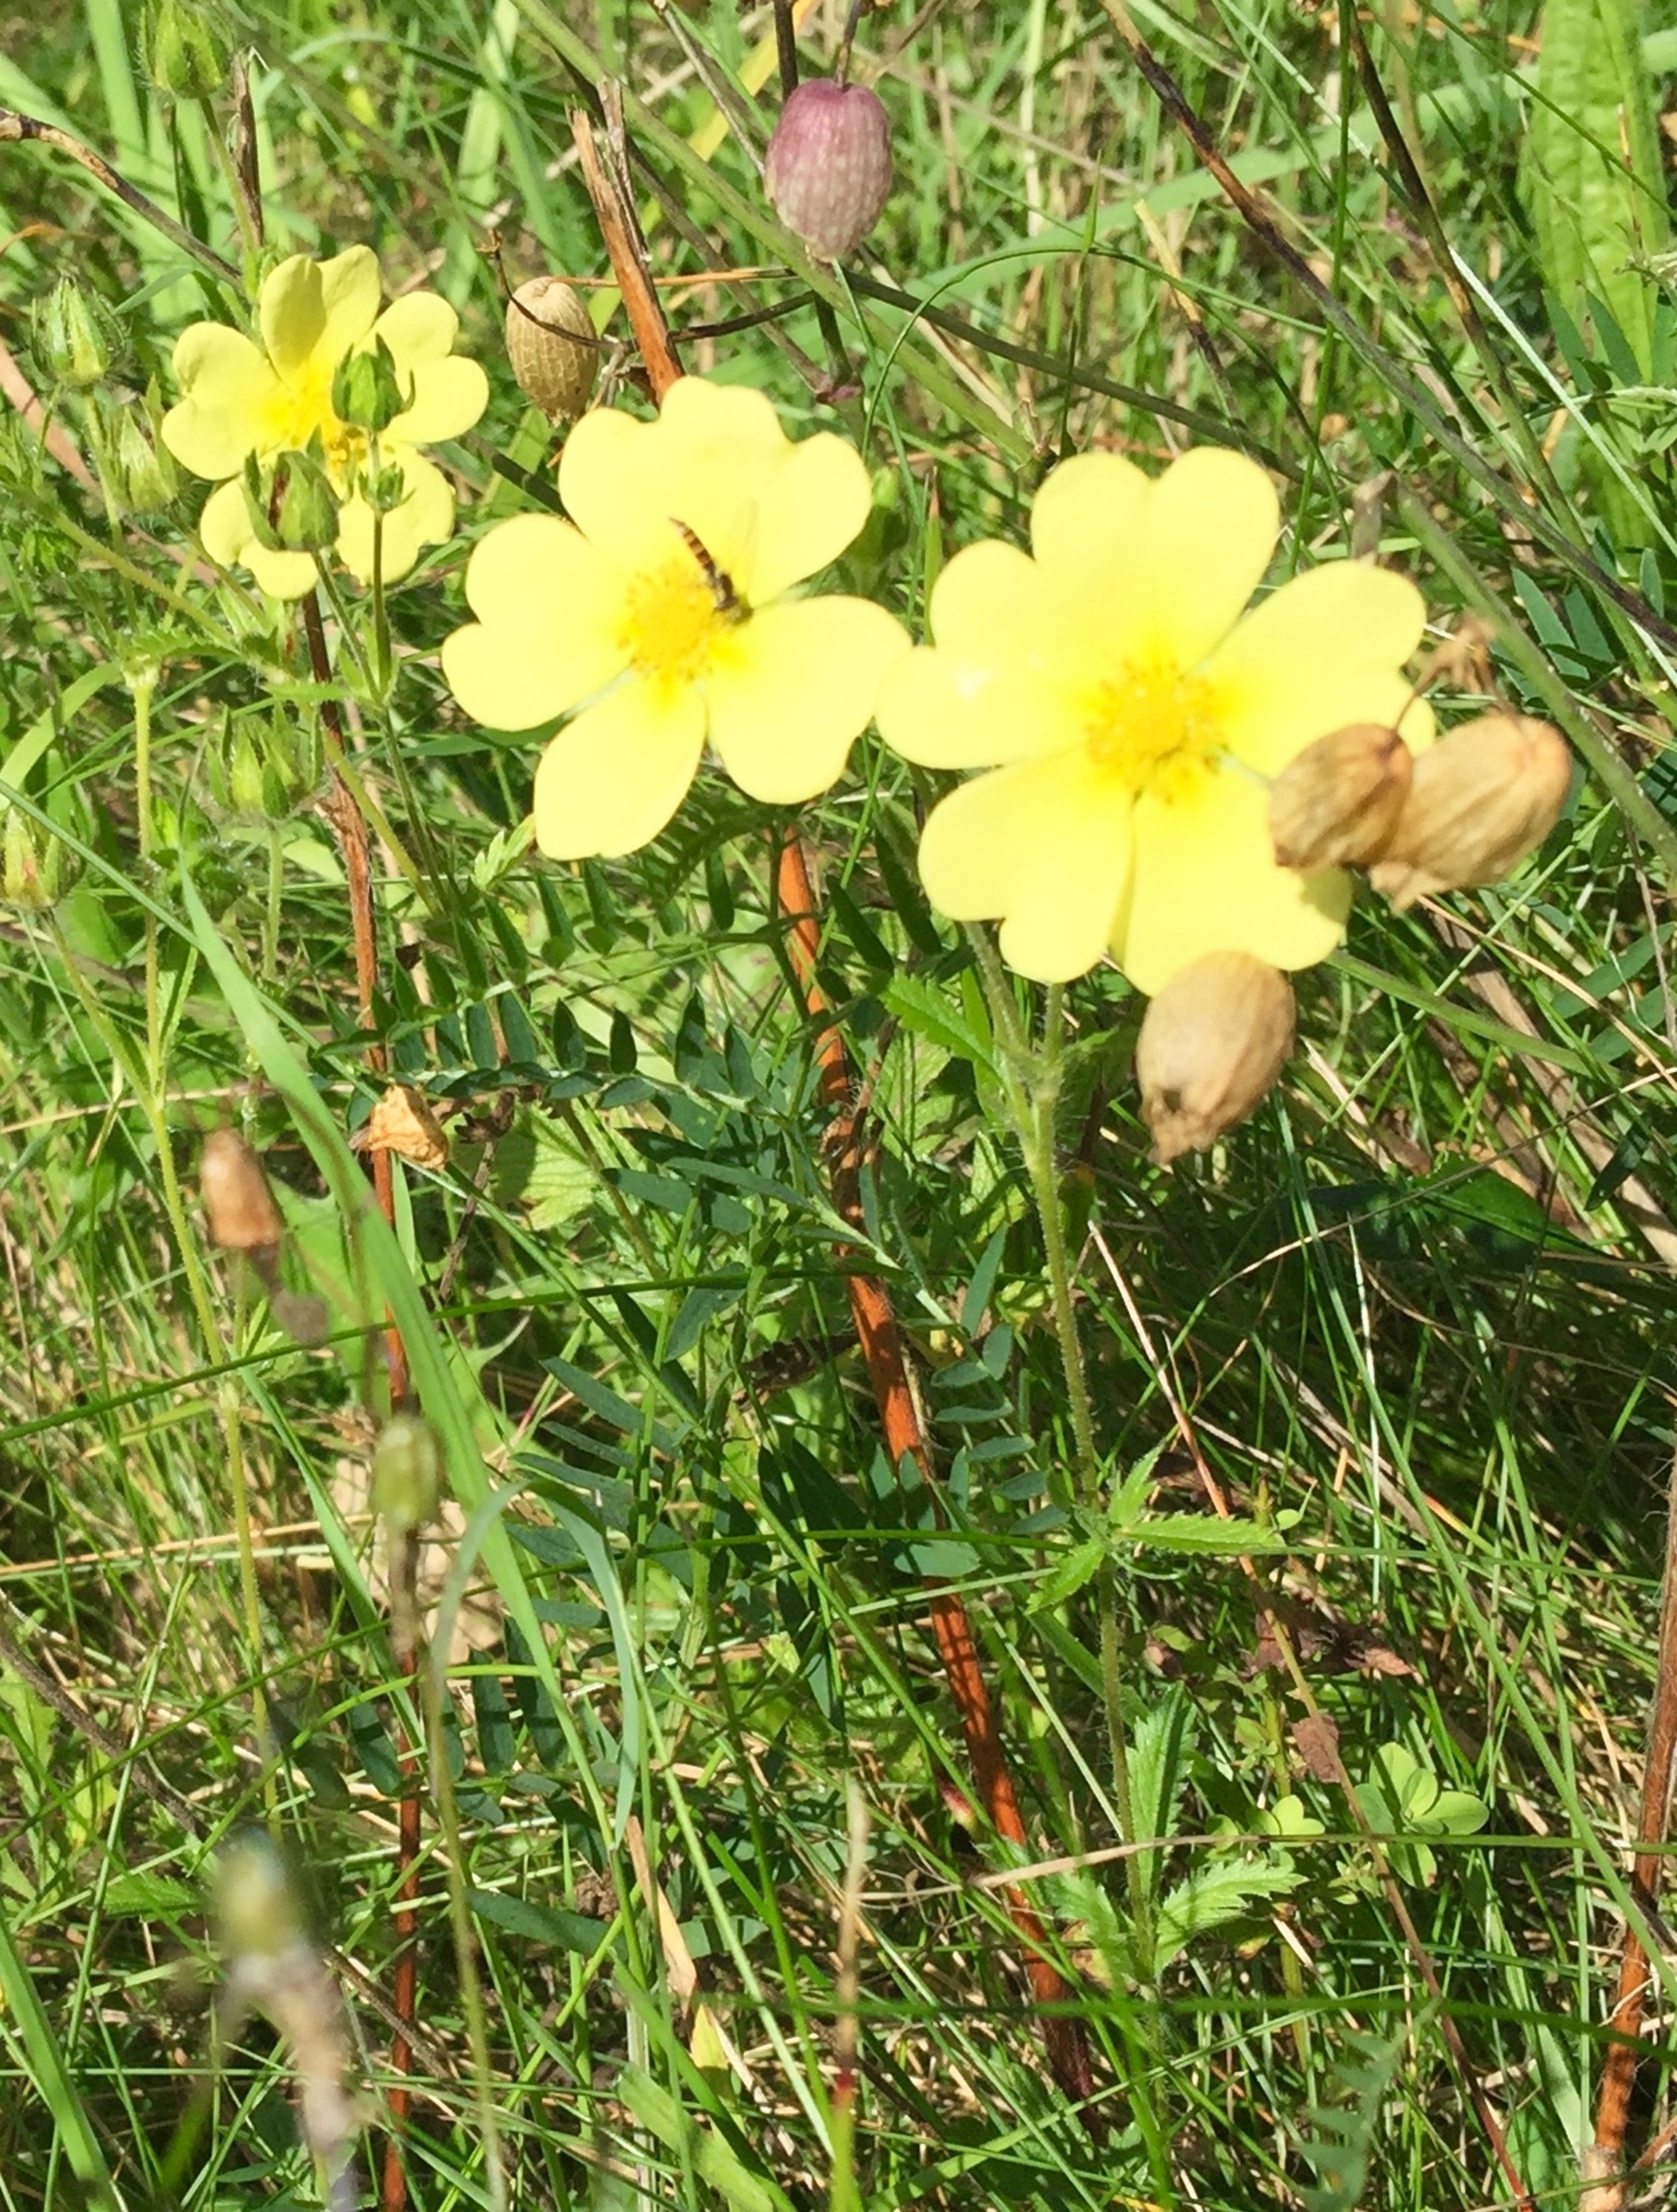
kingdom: Plantae
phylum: Tracheophyta
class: Magnoliopsida
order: Rosales
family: Rosaceae
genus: Potentilla
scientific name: Potentilla recta
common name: Rank potentil
